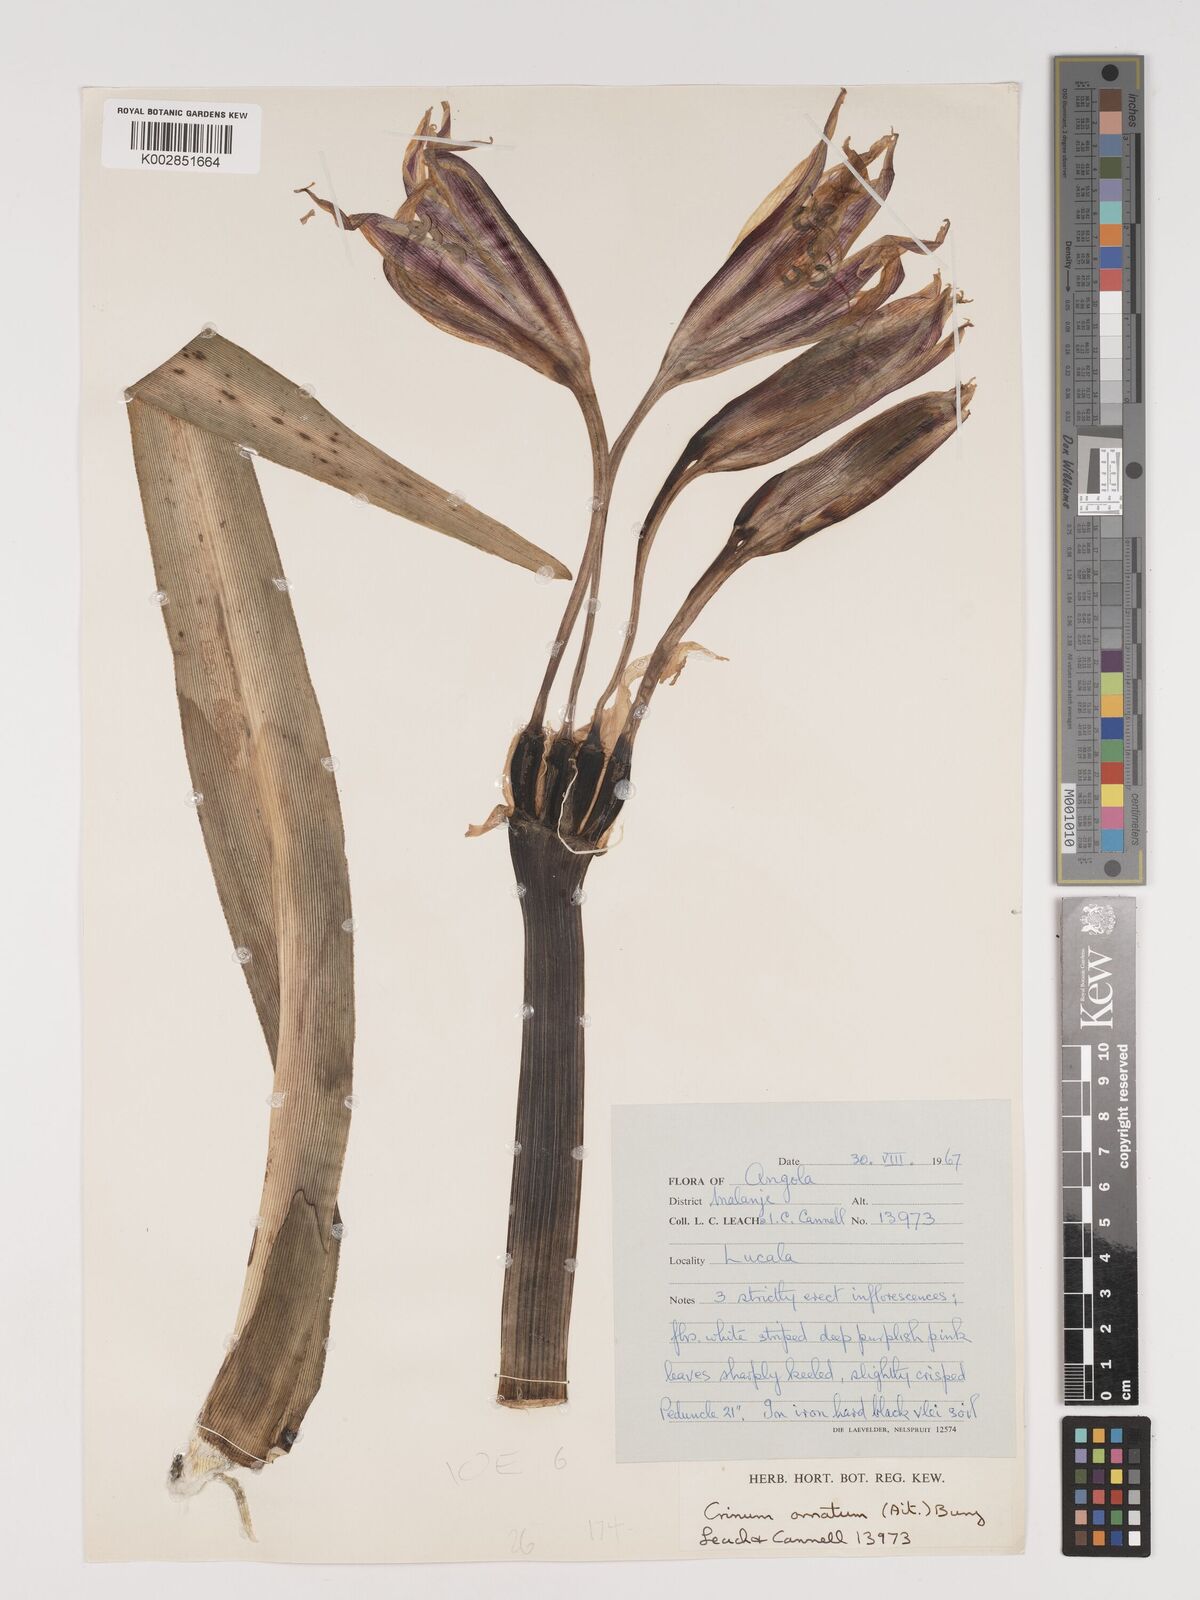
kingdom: Plantae
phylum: Tracheophyta
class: Liliopsida
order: Asparagales
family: Amaryllidaceae
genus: Crinum
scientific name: Crinum ornatum
